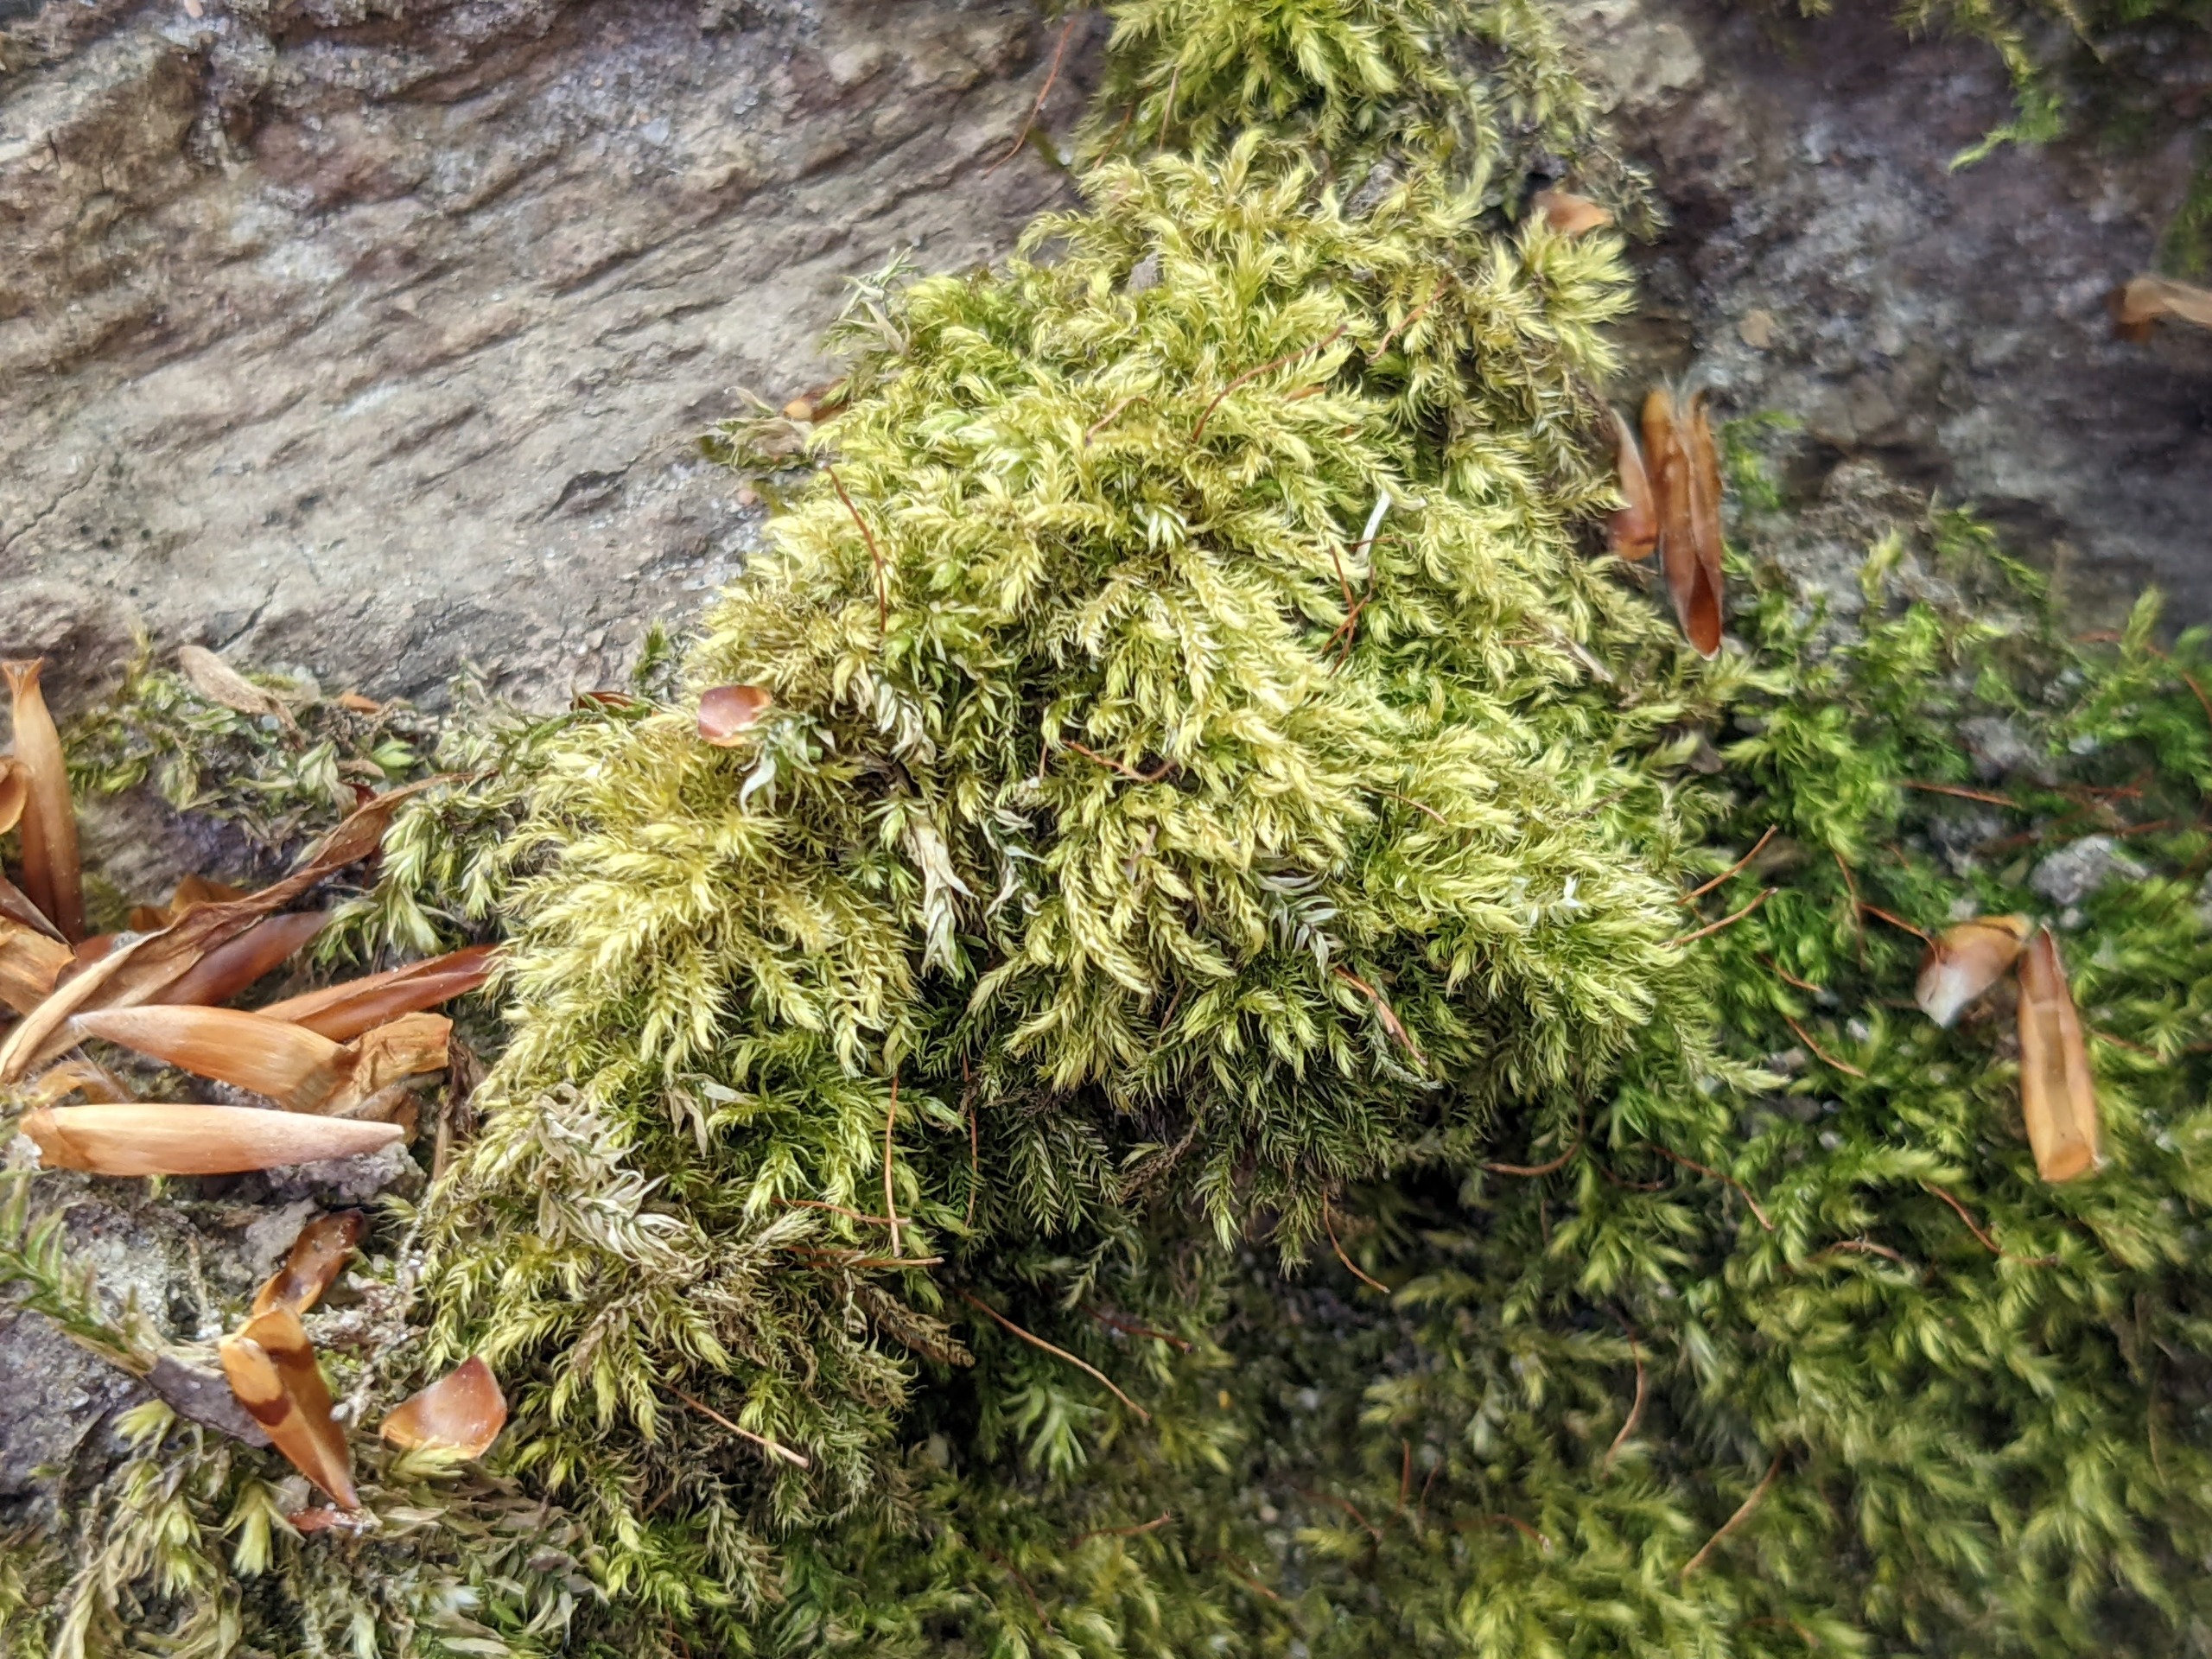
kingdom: Plantae
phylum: Bryophyta
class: Bryopsida
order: Hypnales
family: Brachytheciaceae
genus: Brachytheciastrum
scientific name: Brachytheciastrum velutinum
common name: Fløjls-kortkapsel
